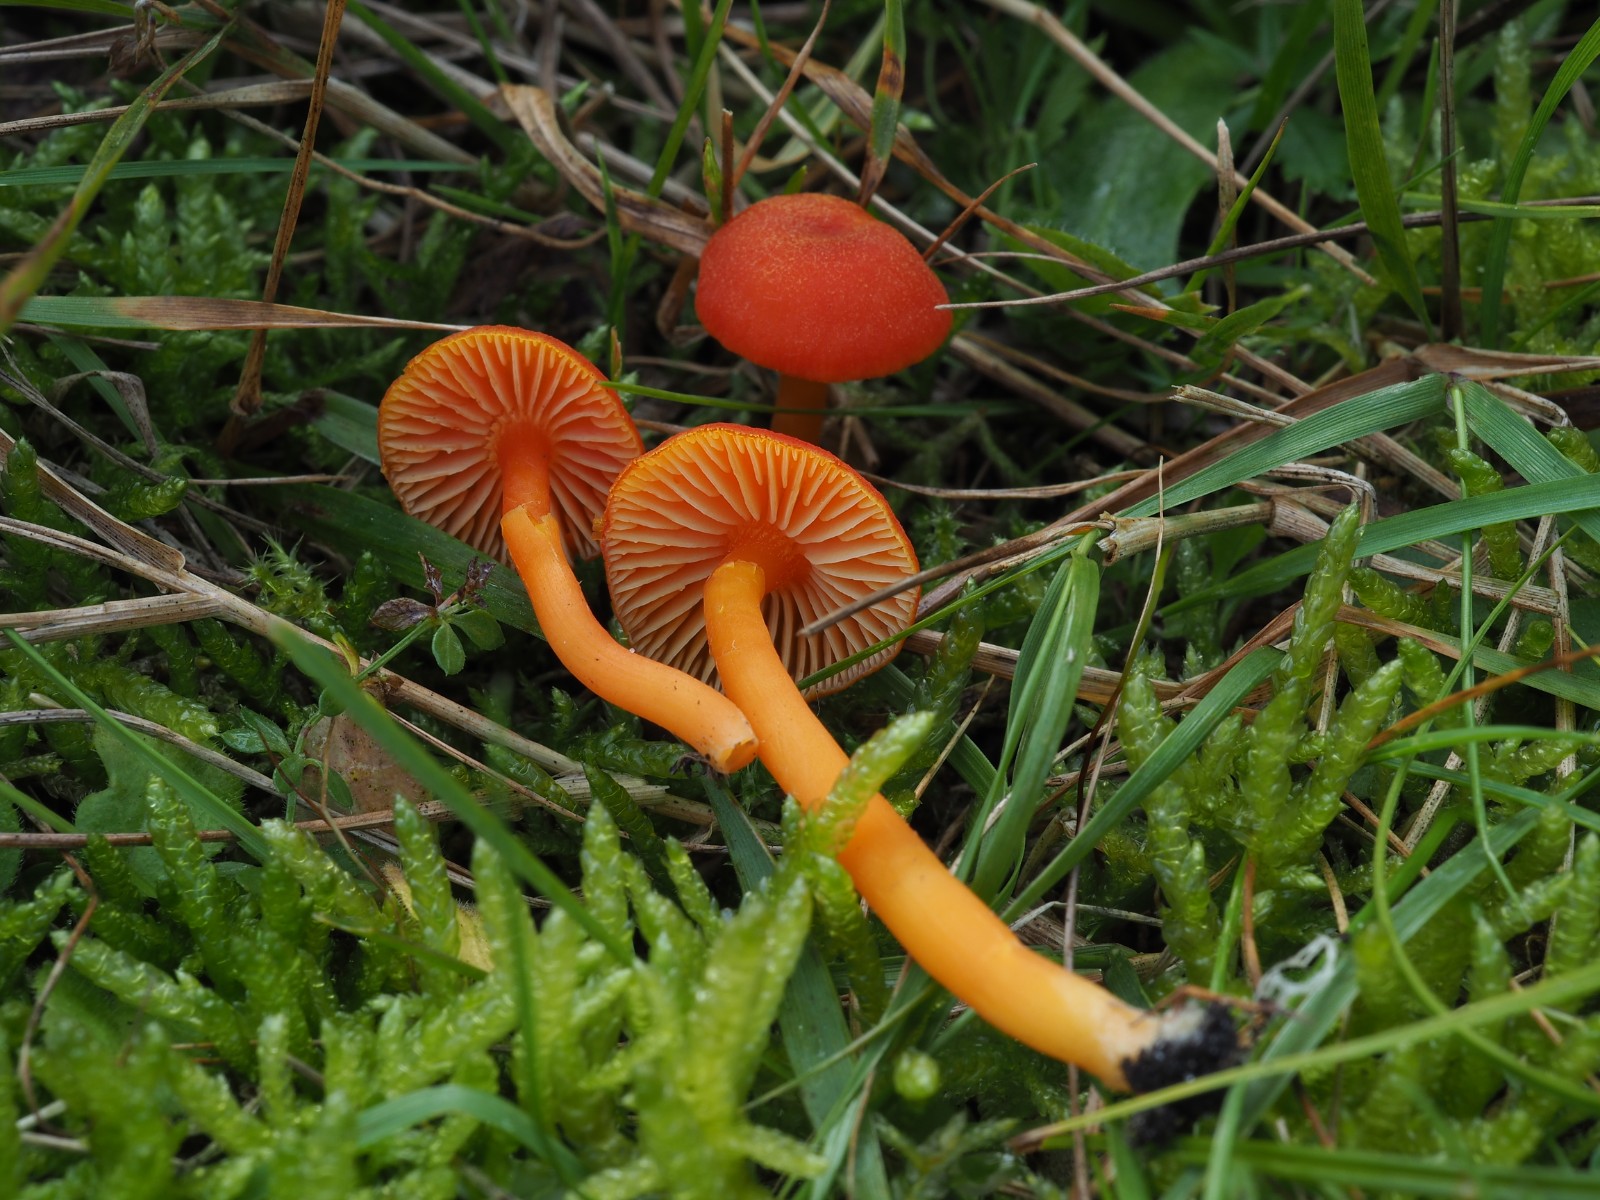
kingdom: Fungi
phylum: Basidiomycota
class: Agaricomycetes
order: Agaricales
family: Hygrophoraceae
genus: Hygrocybe
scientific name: Hygrocybe miniata
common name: mønje-vokshat
